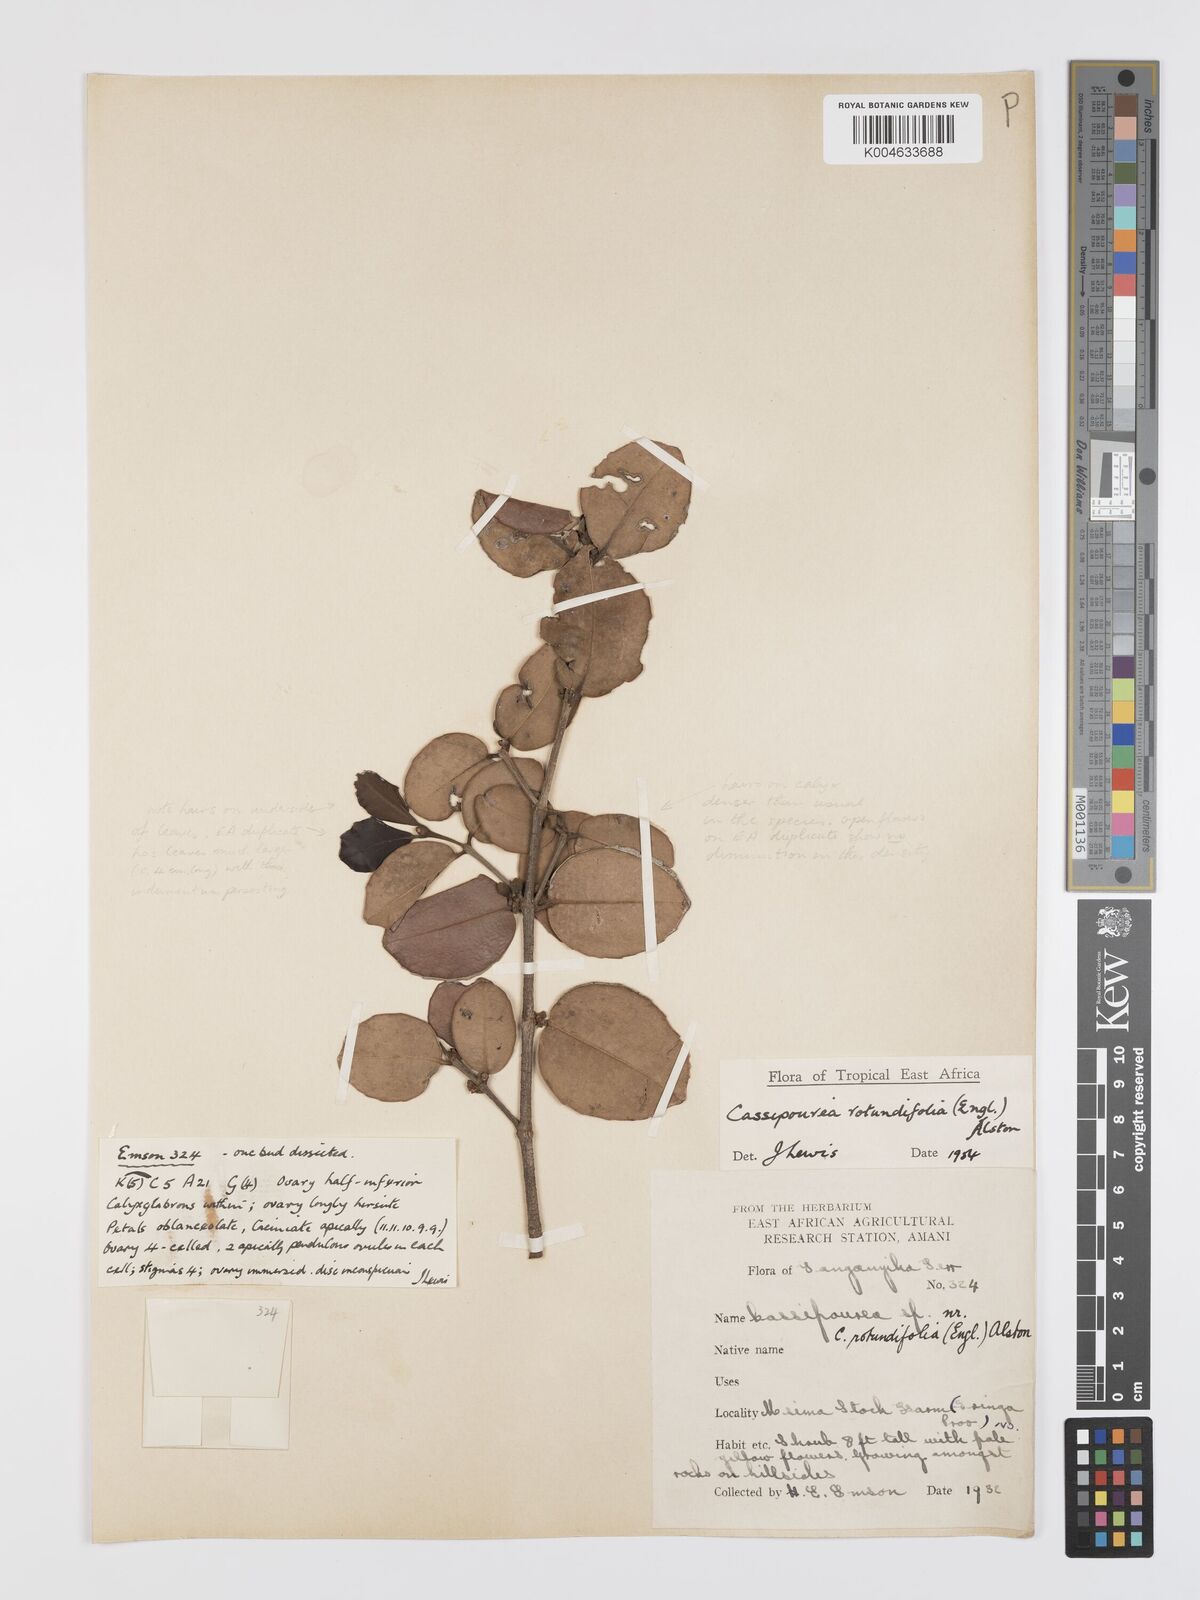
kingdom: Plantae
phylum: Tracheophyta
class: Magnoliopsida
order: Malpighiales
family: Rhizophoraceae
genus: Cassipourea
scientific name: Cassipourea rotundifolia
